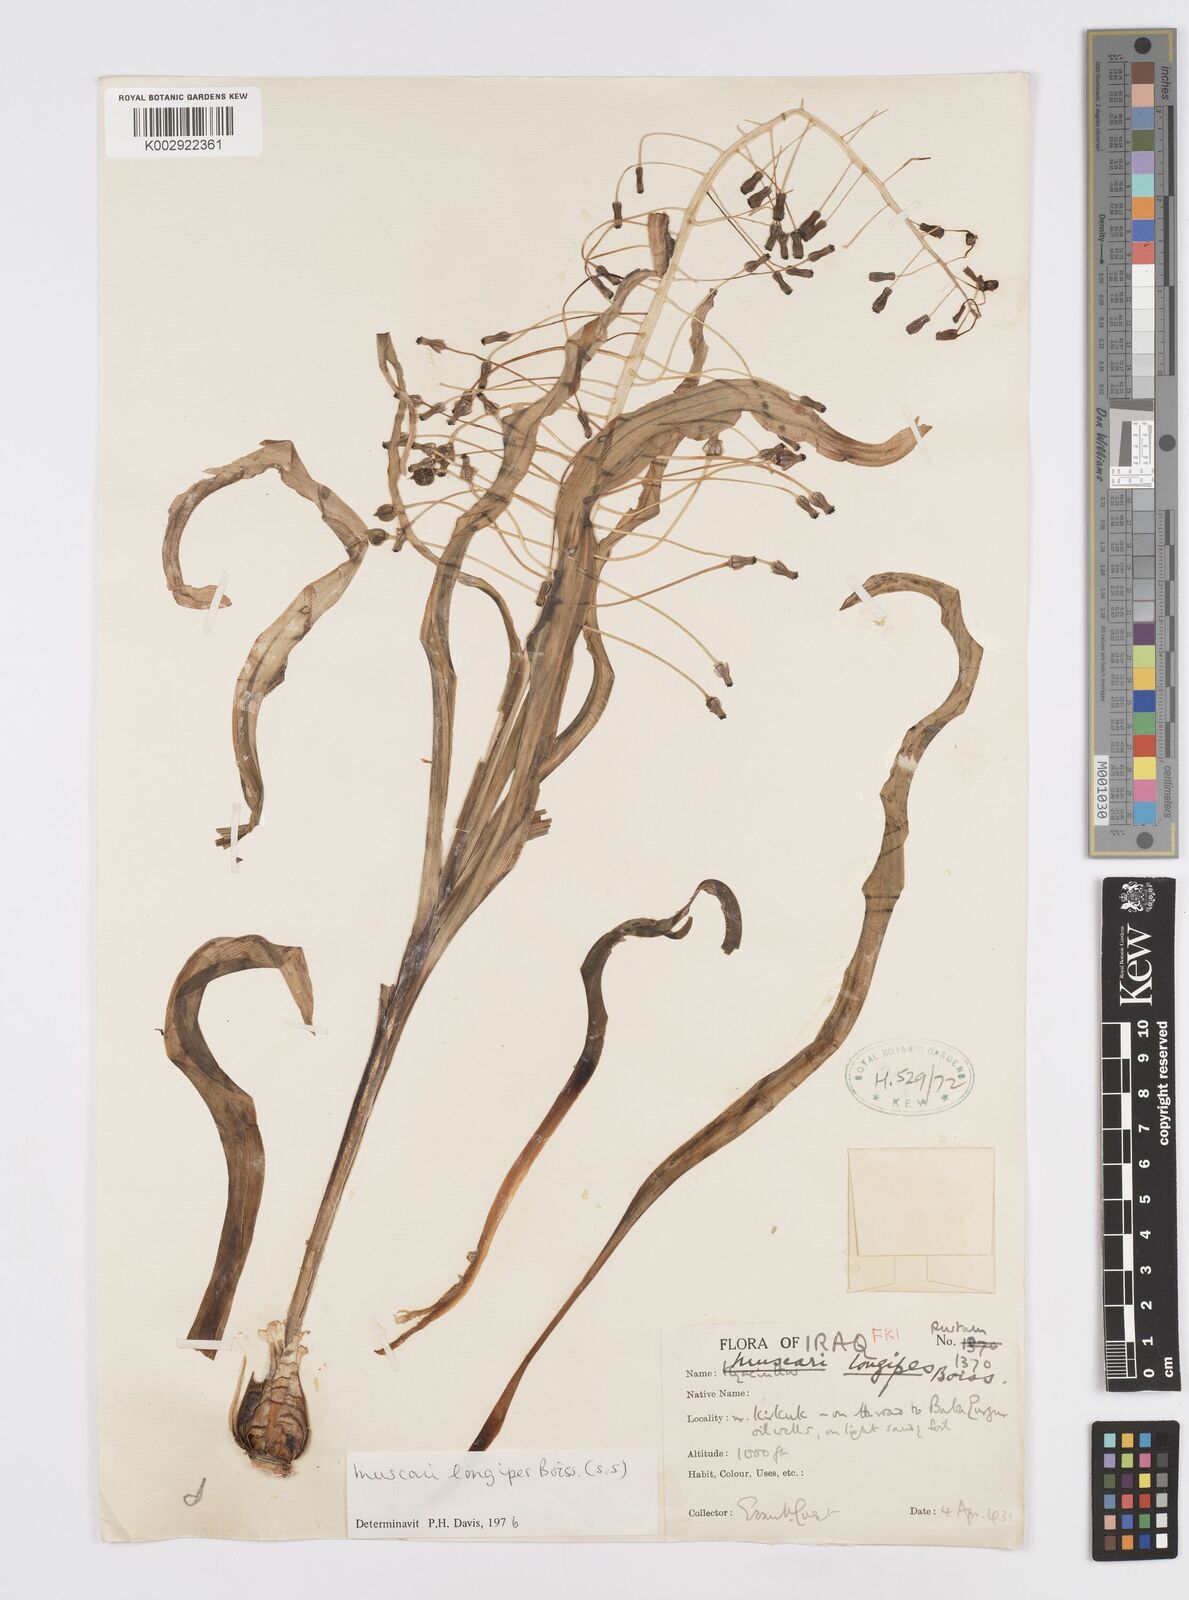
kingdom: Plantae
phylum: Tracheophyta
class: Liliopsida
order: Asparagales
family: Asparagaceae
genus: Muscari
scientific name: Muscari longipes
